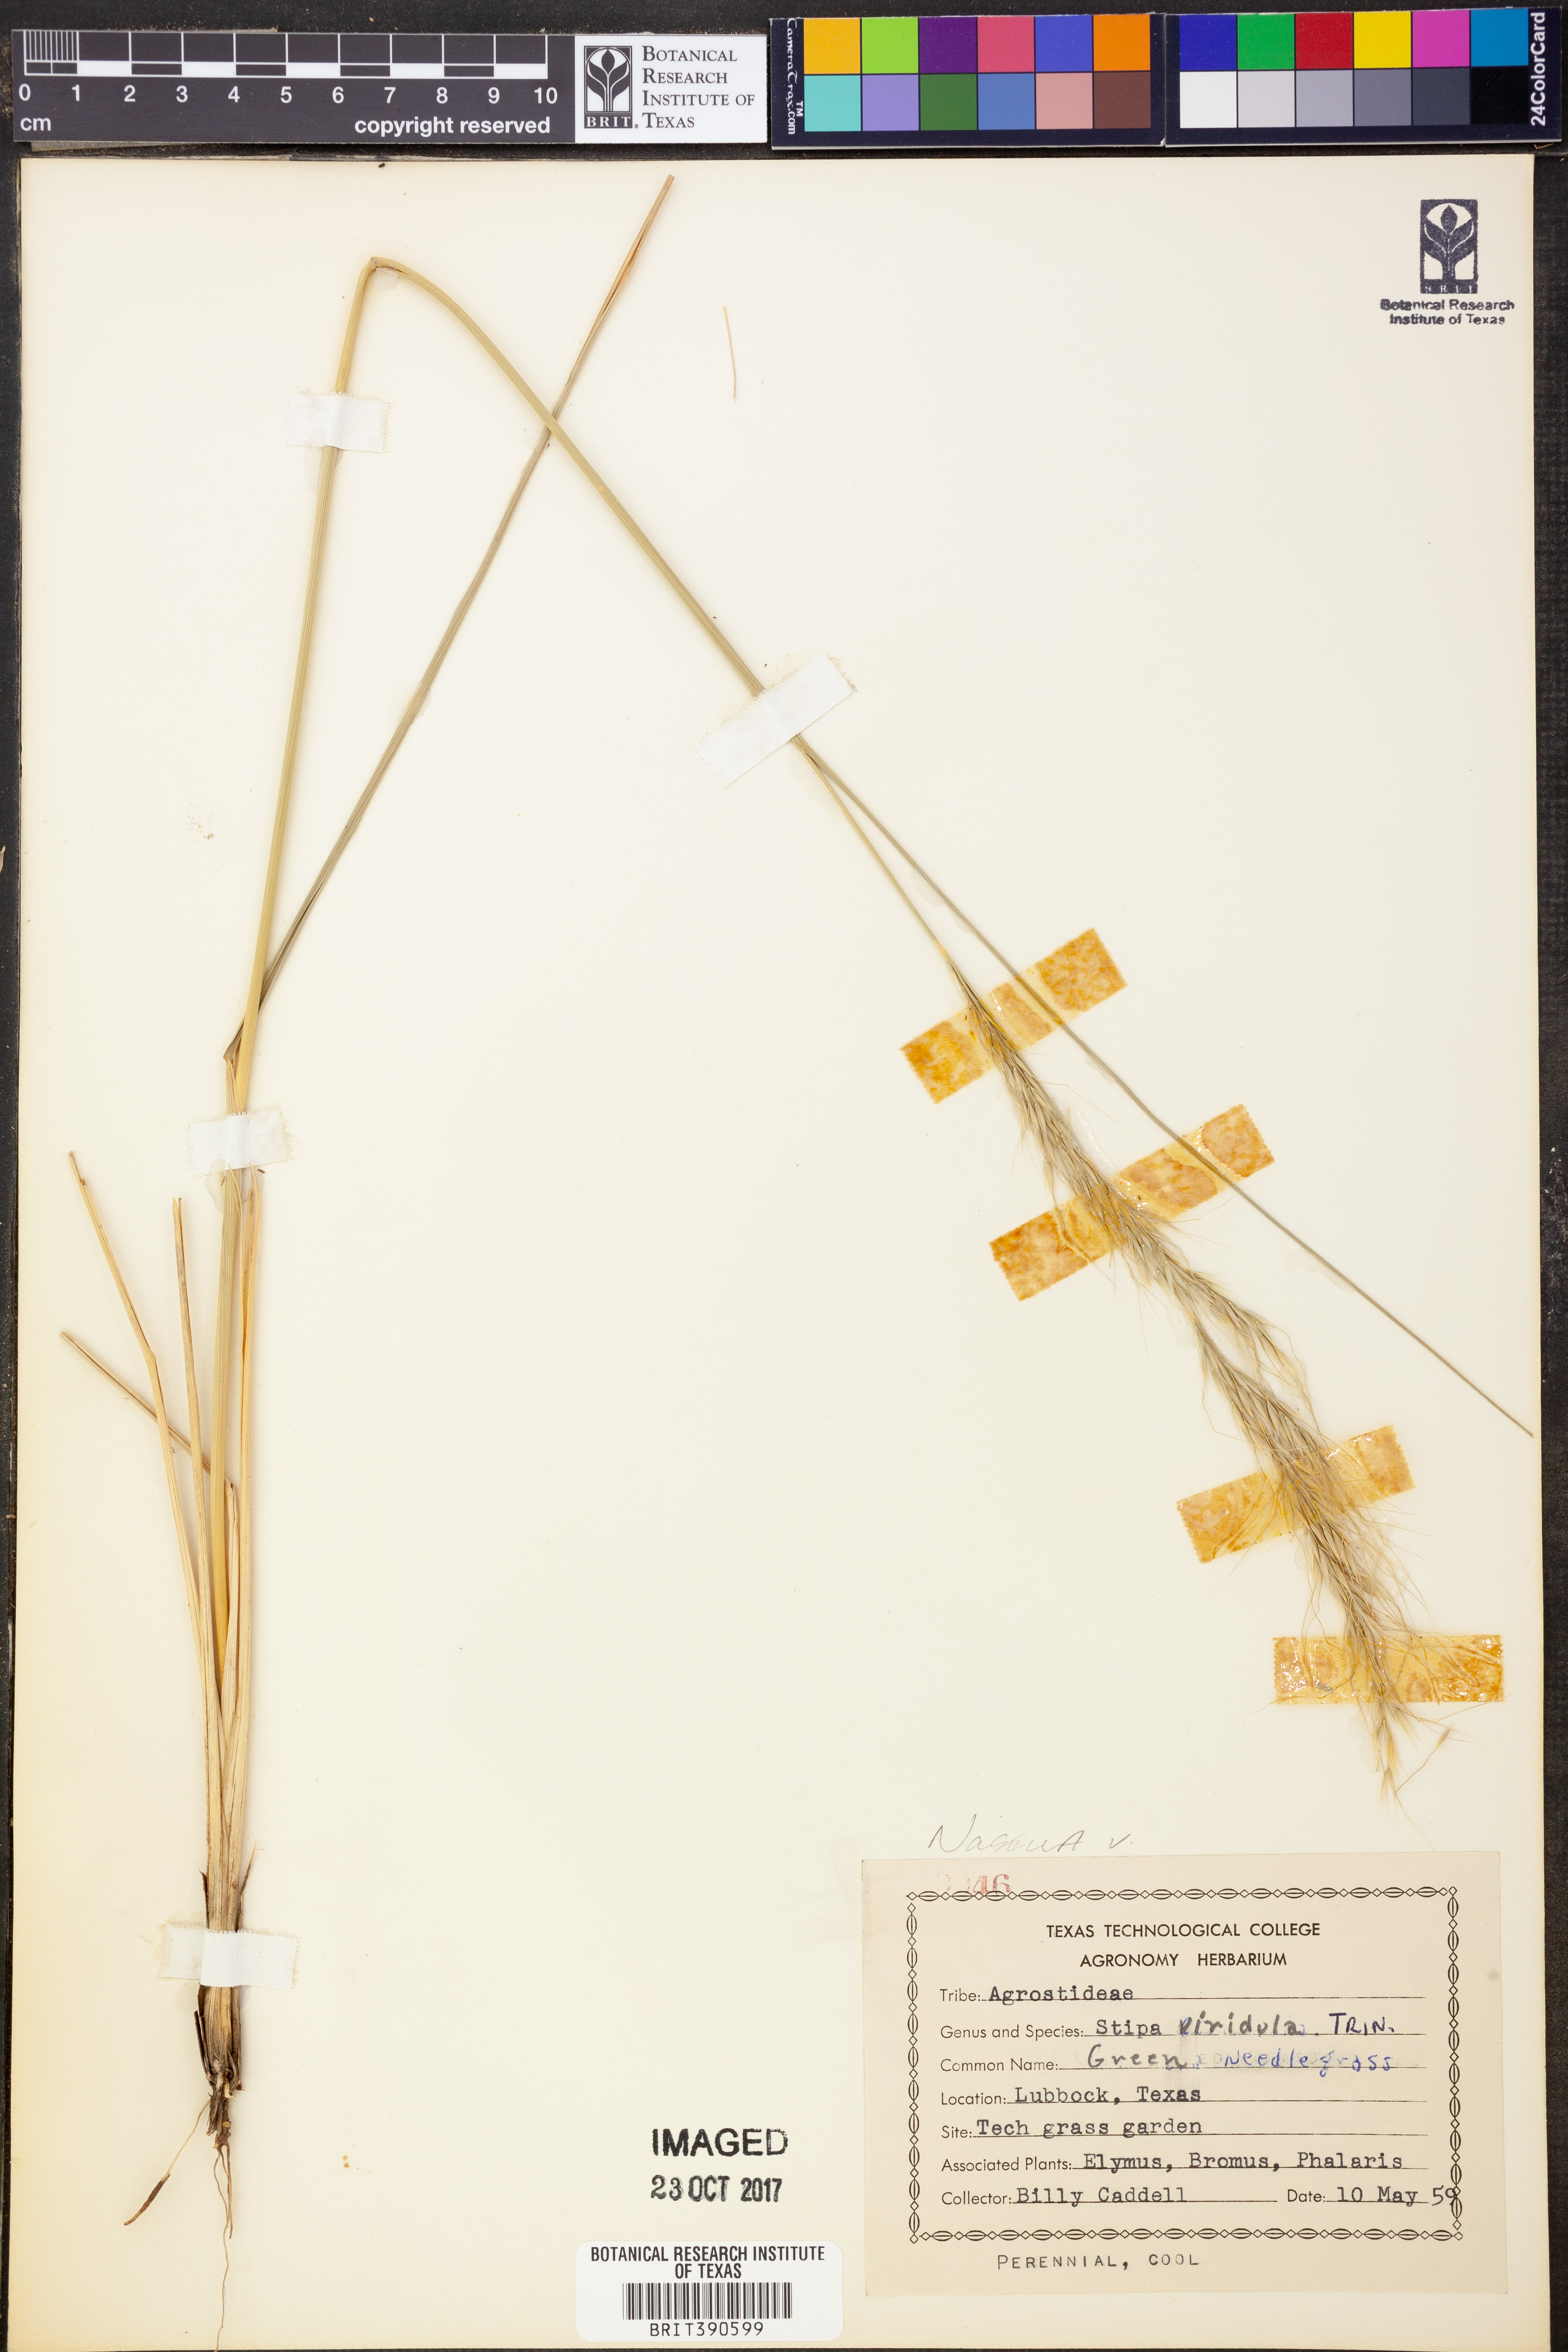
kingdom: Plantae
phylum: Tracheophyta
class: Liliopsida
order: Poales
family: Poaceae
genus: Nassella
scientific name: Nassella viridula
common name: Green needlegrass
